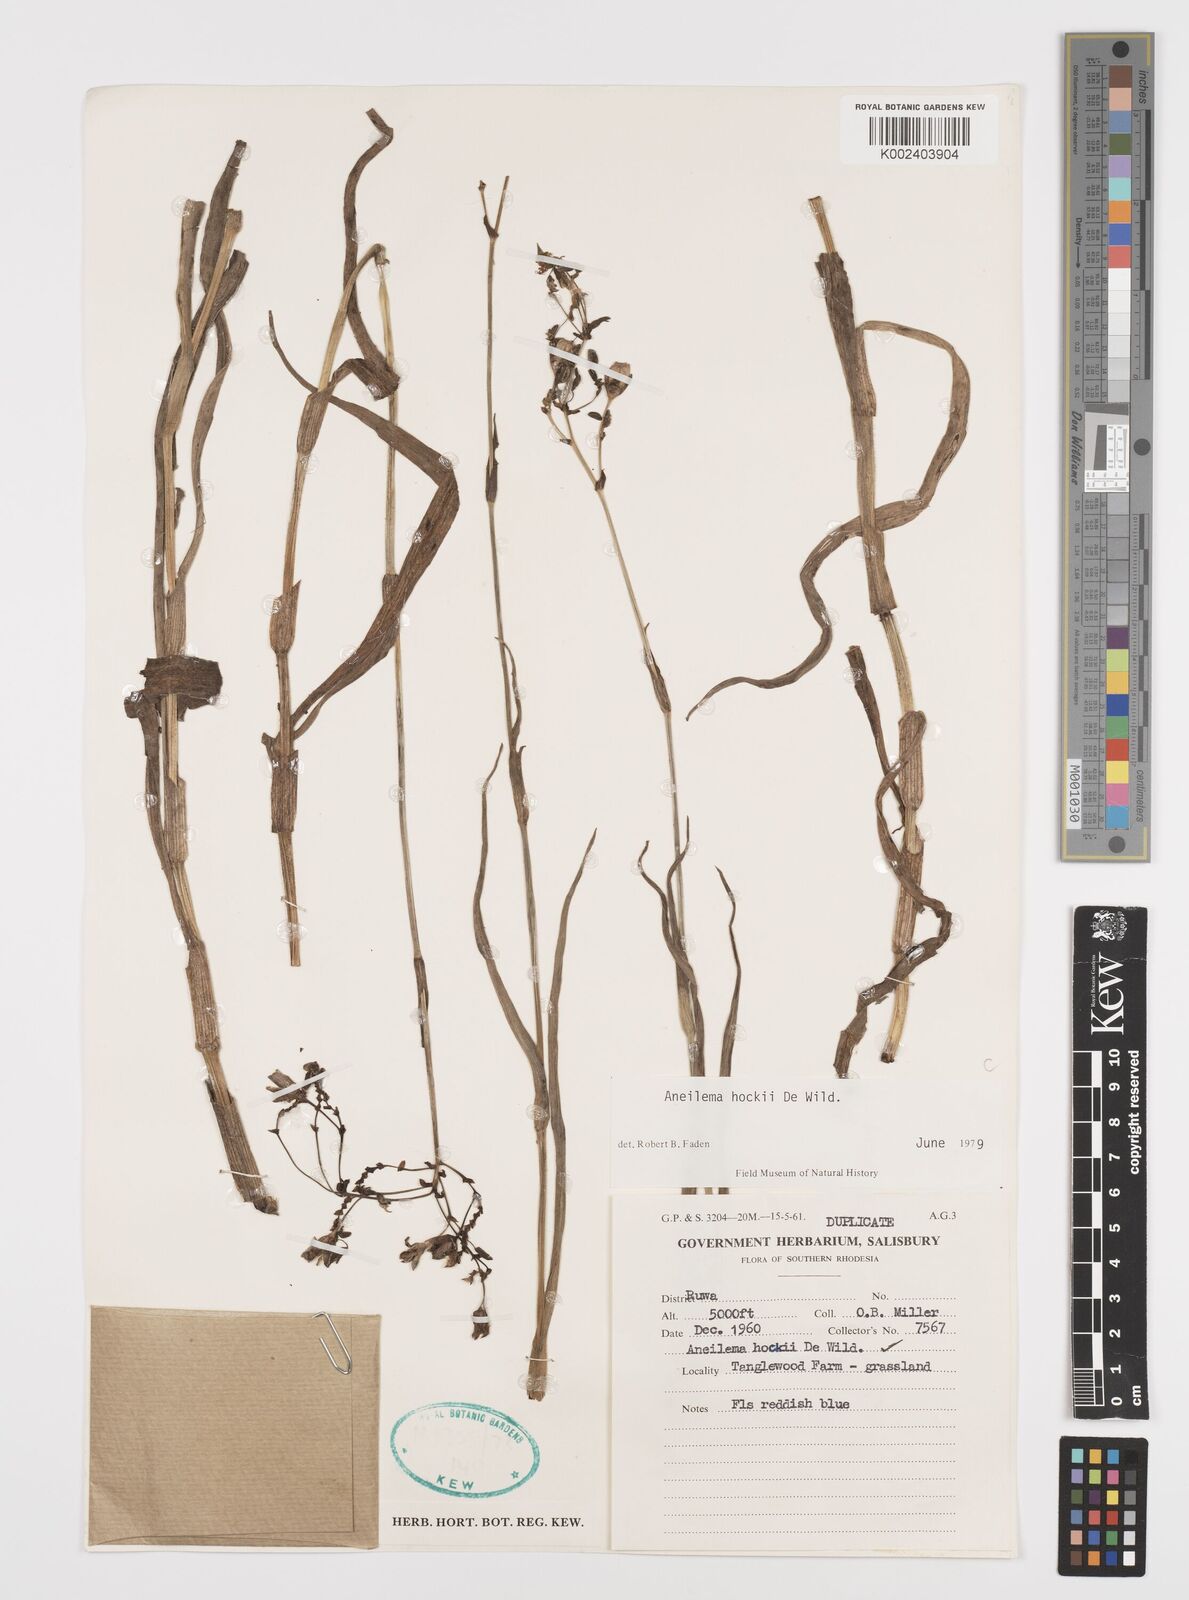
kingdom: Plantae
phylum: Tracheophyta
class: Liliopsida
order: Commelinales
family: Commelinaceae
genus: Aneilema
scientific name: Aneilema hockii
